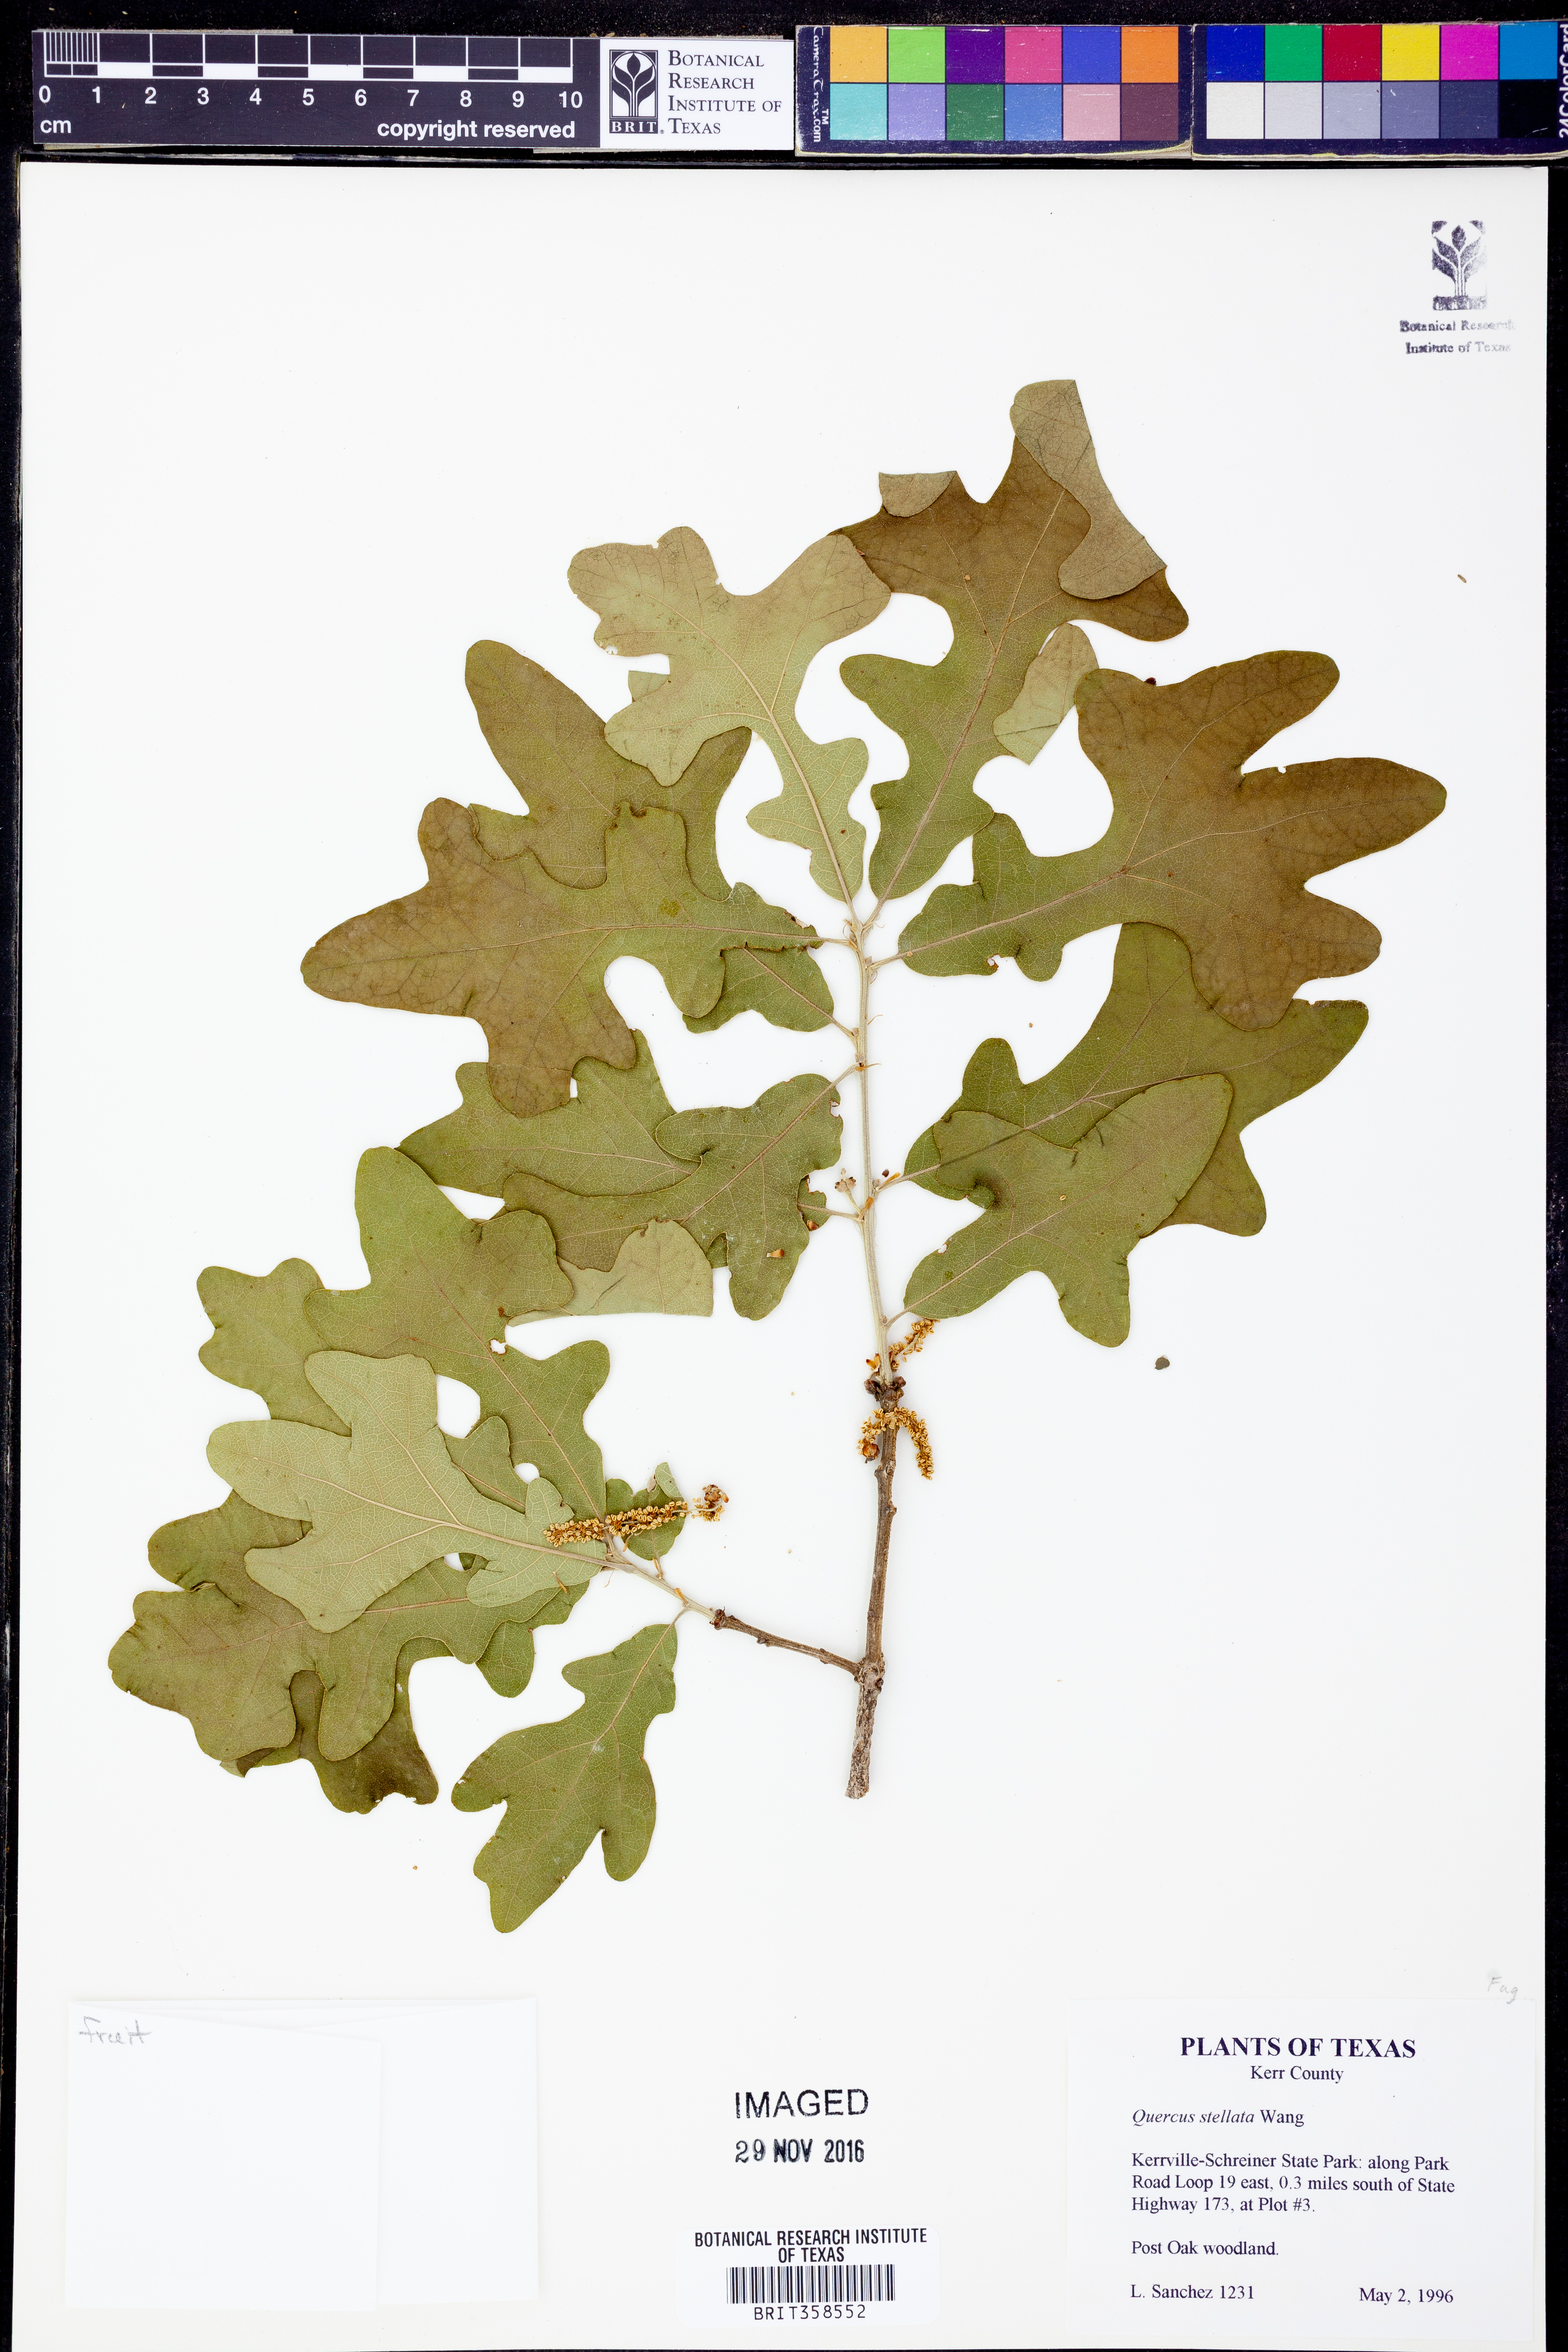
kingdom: Plantae
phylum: Tracheophyta
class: Magnoliopsida
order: Fagales
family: Fagaceae
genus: Quercus
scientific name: Quercus stellata
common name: Post oak
